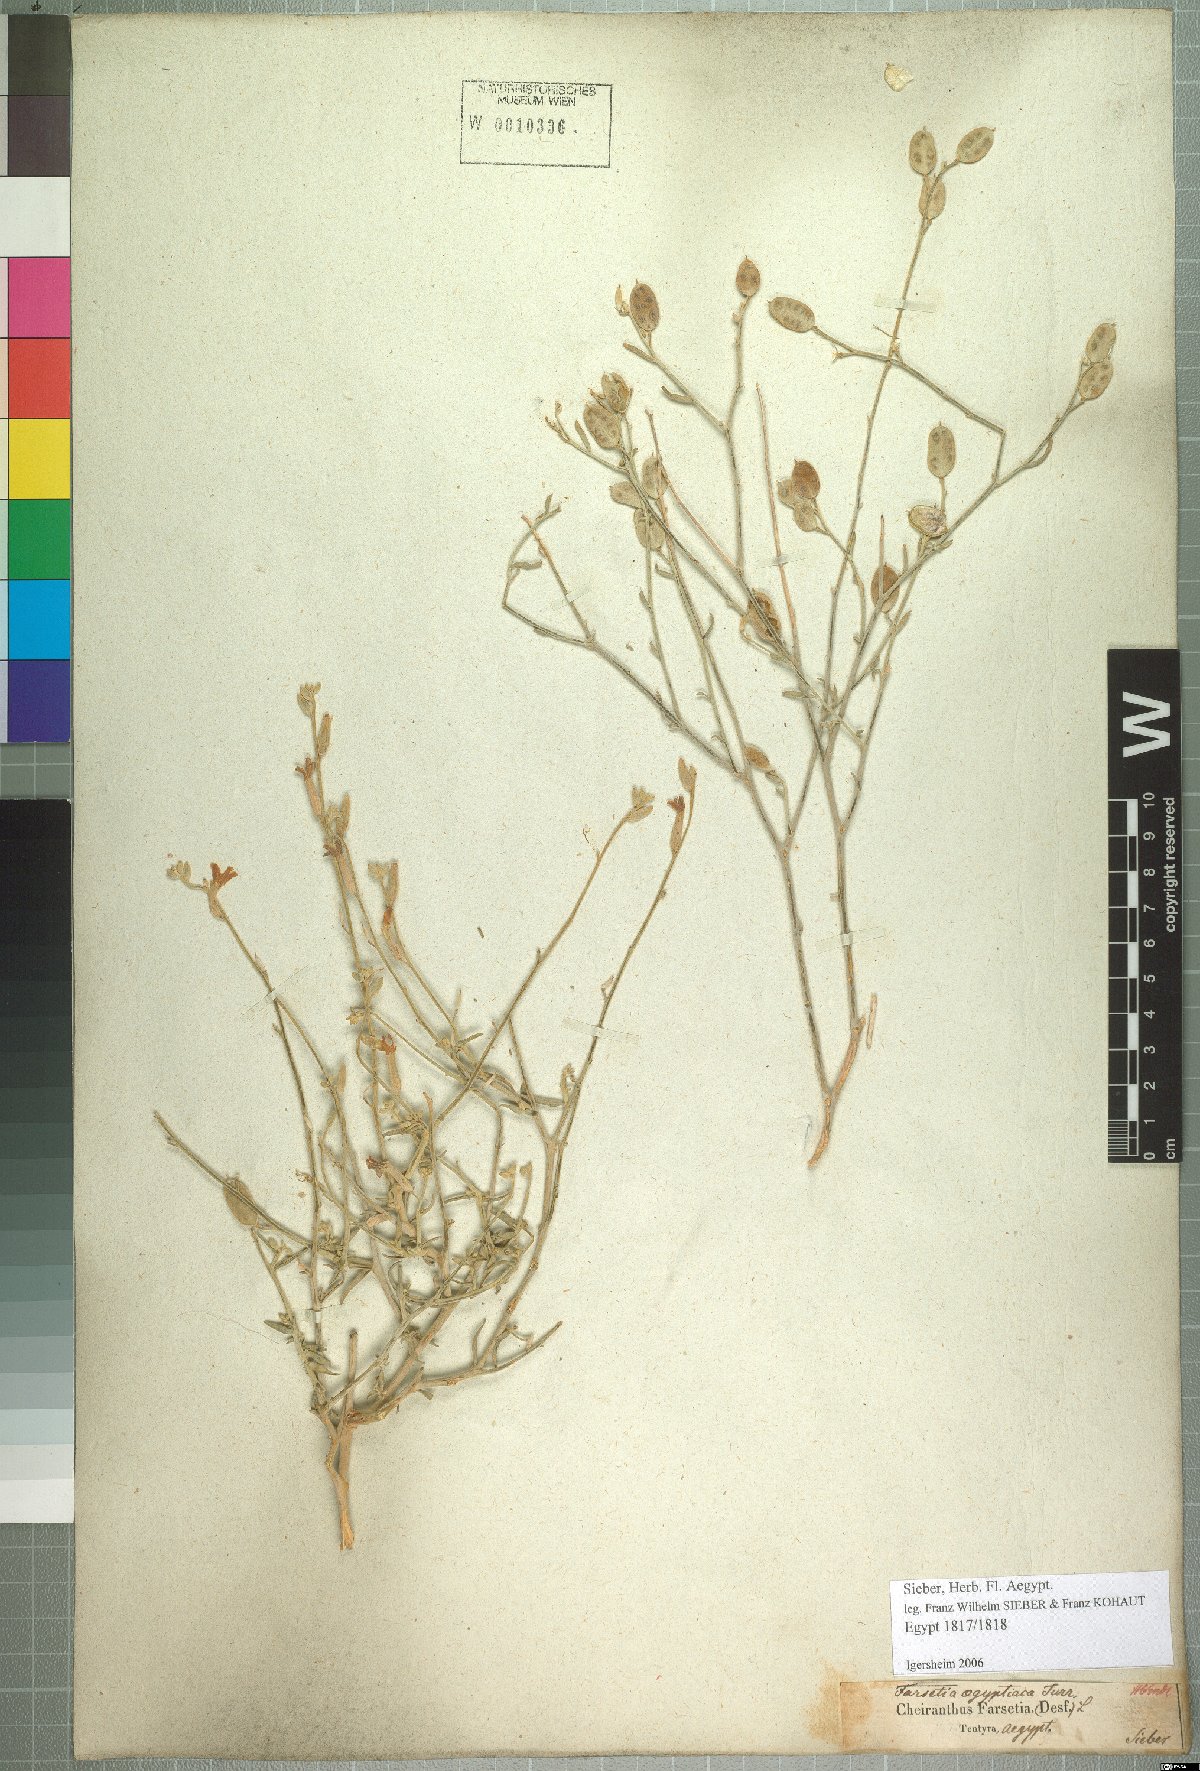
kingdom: Plantae
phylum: Tracheophyta
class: Magnoliopsida
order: Brassicales
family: Brassicaceae
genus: Farsetia
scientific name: Farsetia aegyptia
